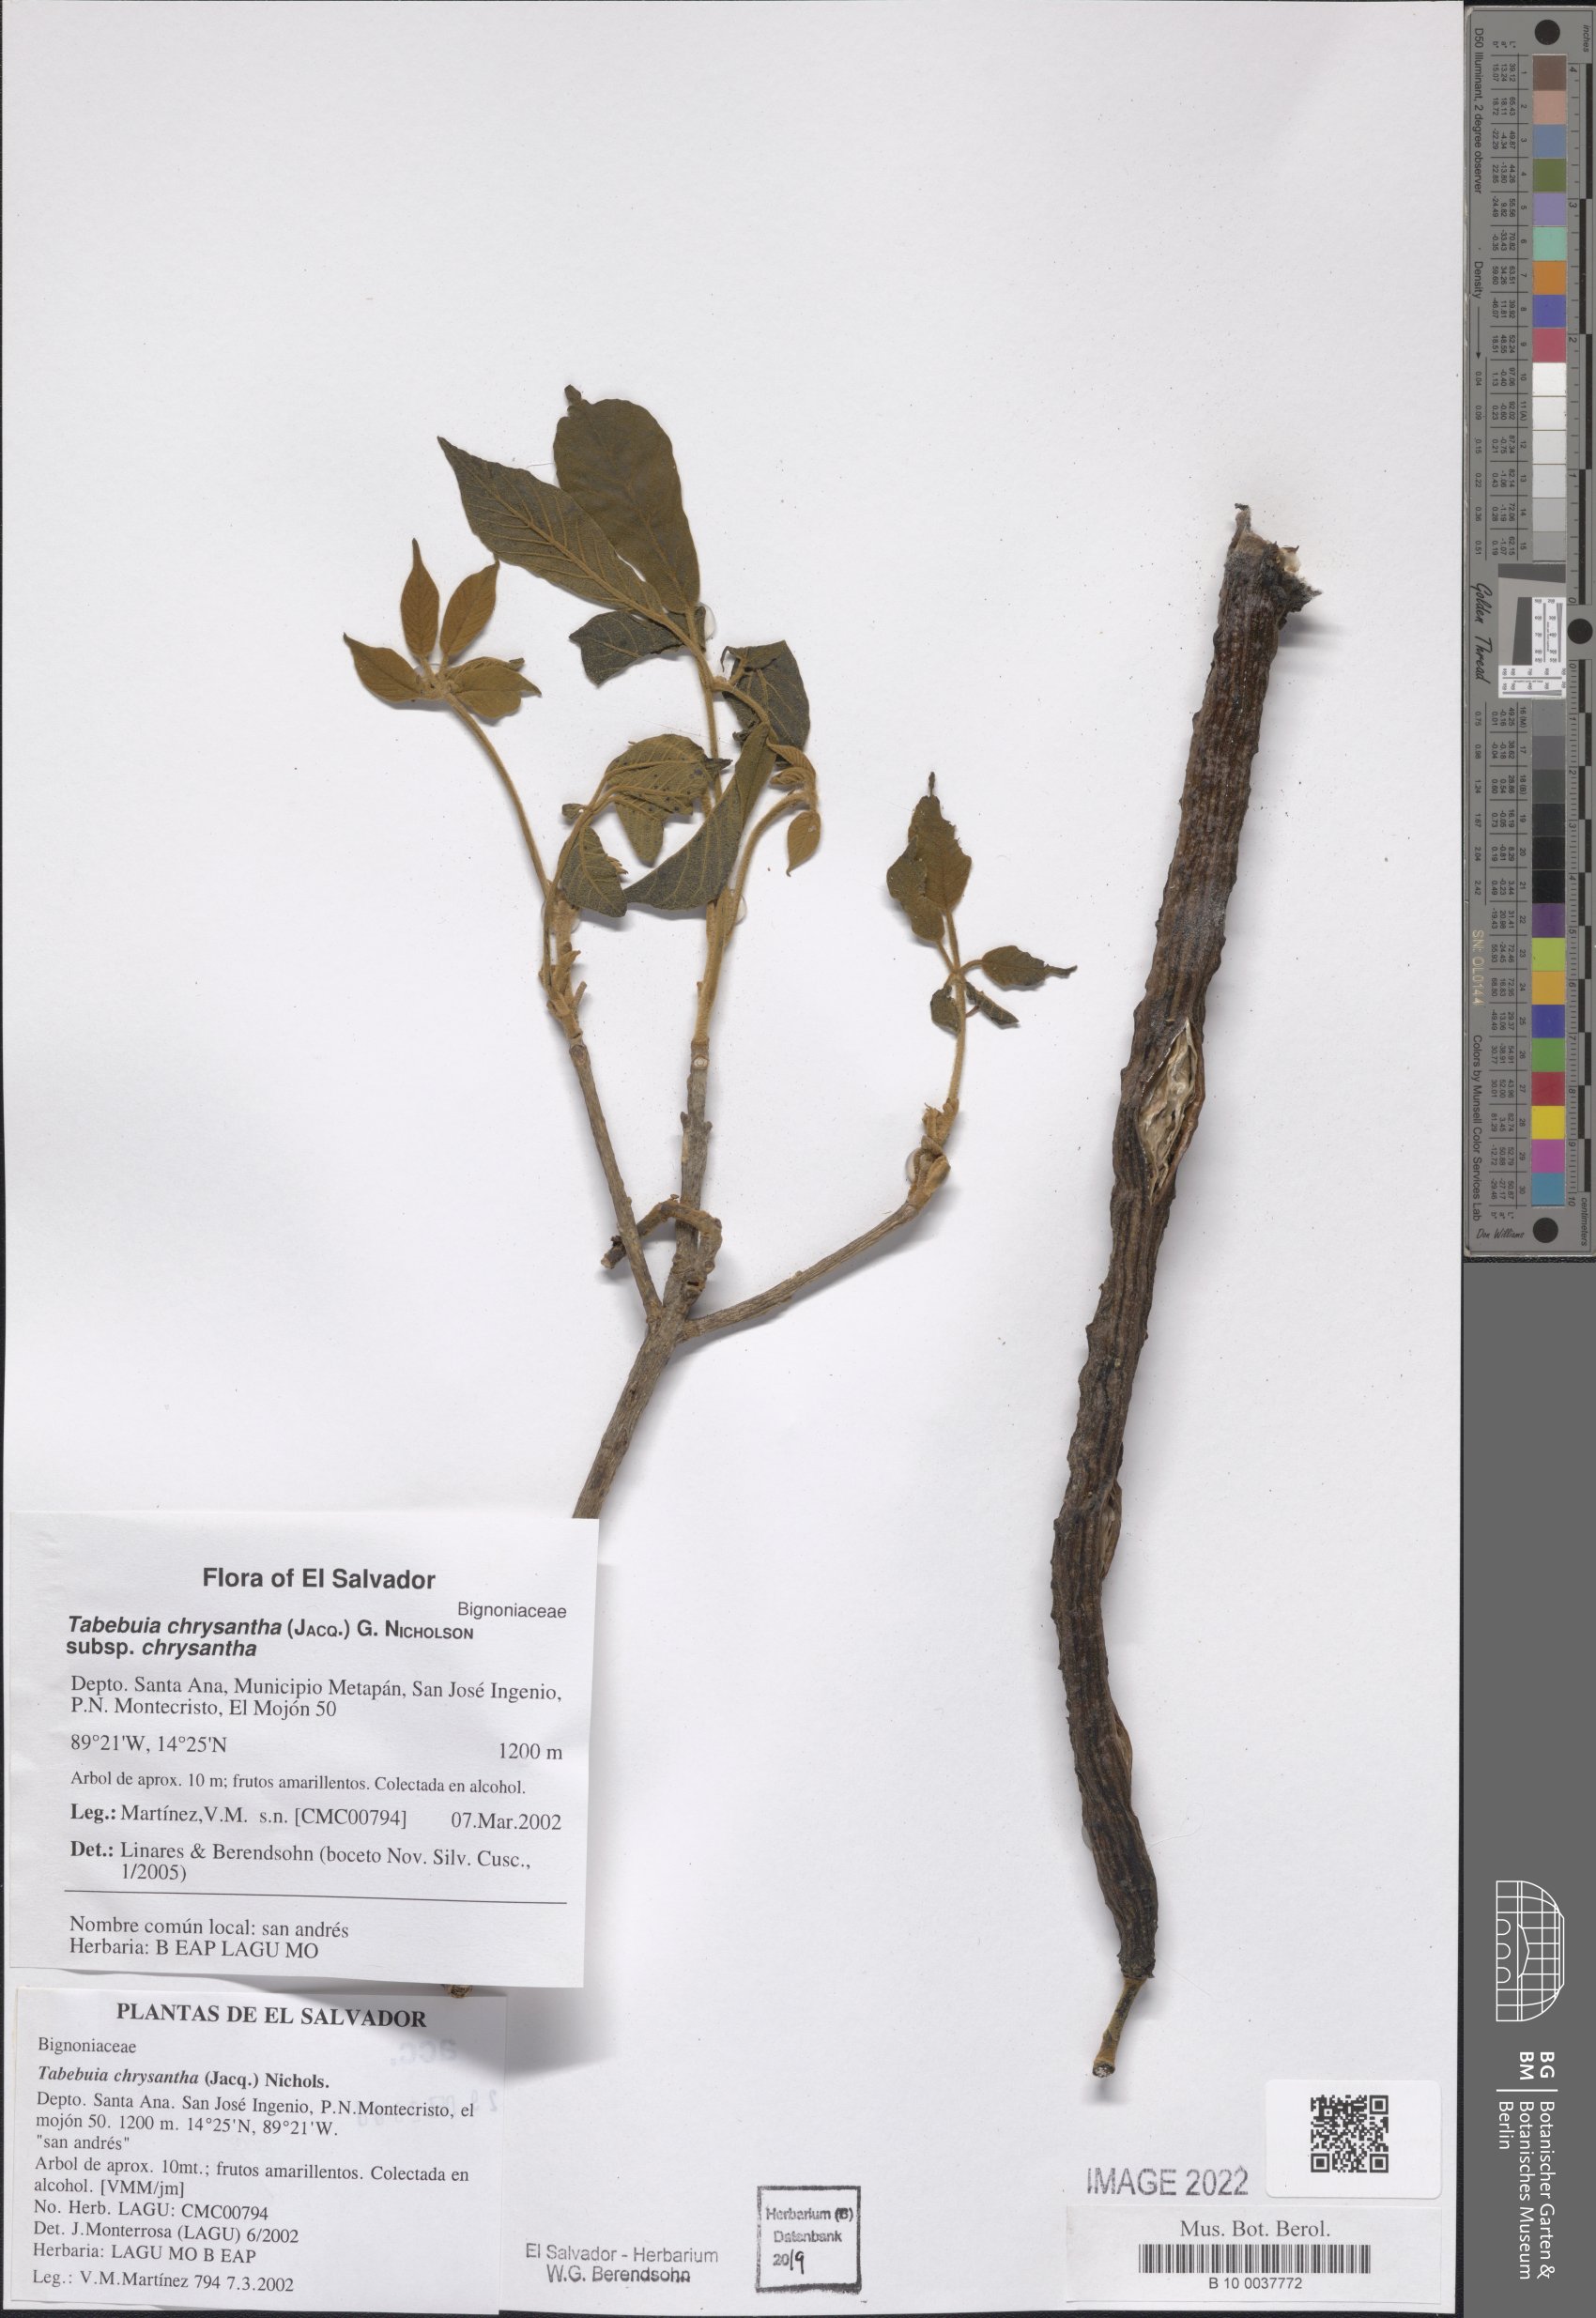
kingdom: Plantae
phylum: Tracheophyta
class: Magnoliopsida
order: Lamiales
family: Bignoniaceae
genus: Handroanthus
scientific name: Handroanthus chrysanthus
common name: Trumpet trees
